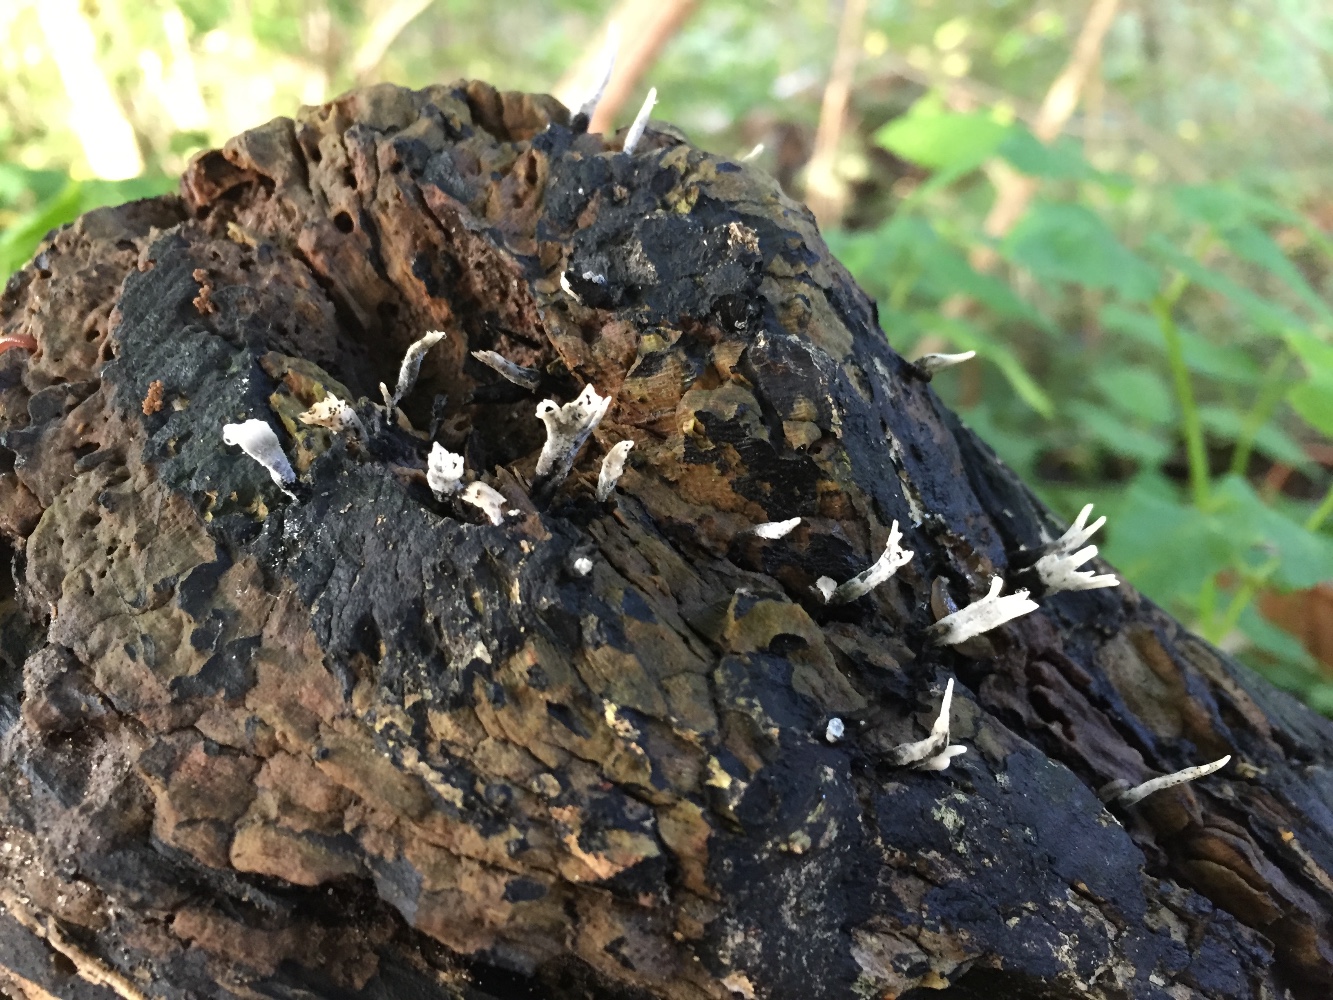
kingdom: Fungi
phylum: Ascomycota
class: Sordariomycetes
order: Xylariales
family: Xylariaceae
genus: Xylaria
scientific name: Xylaria hypoxylon
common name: grenet stødsvamp
